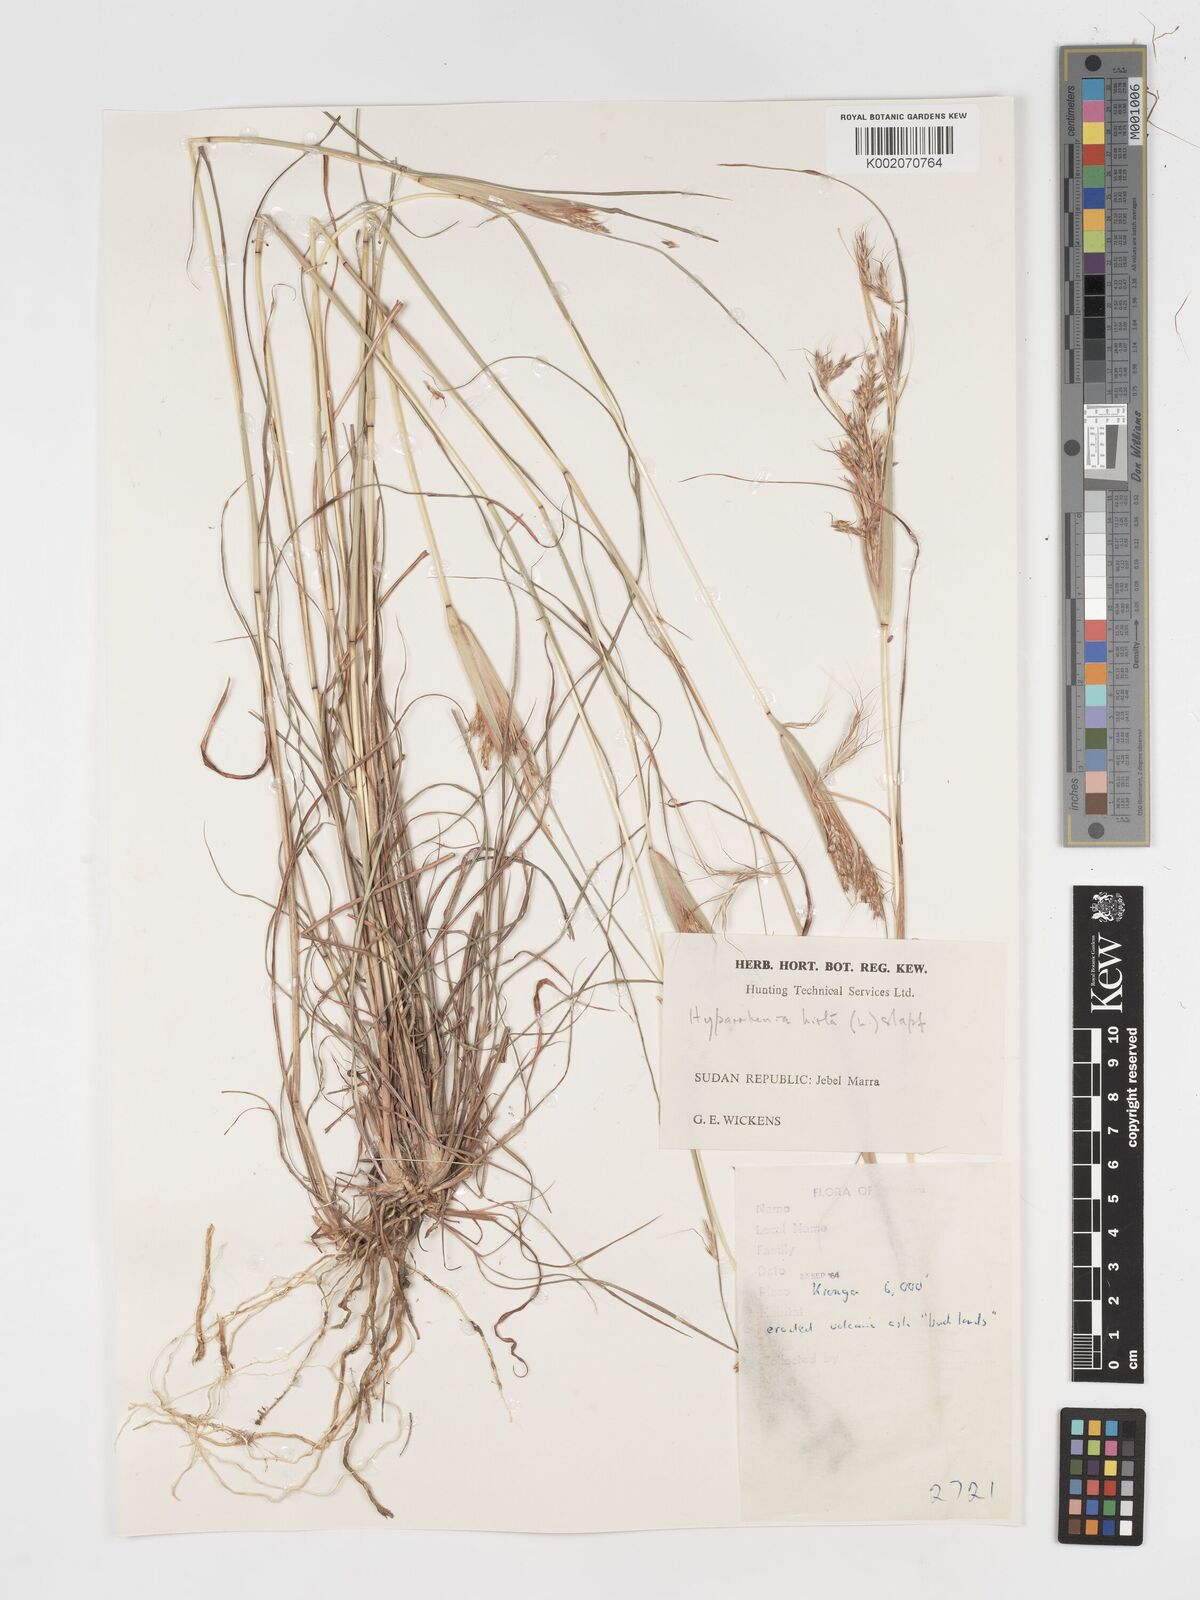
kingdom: Plantae
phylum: Tracheophyta
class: Liliopsida
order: Poales
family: Poaceae
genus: Hyparrhenia
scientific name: Hyparrhenia hirta
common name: Thatching grass
